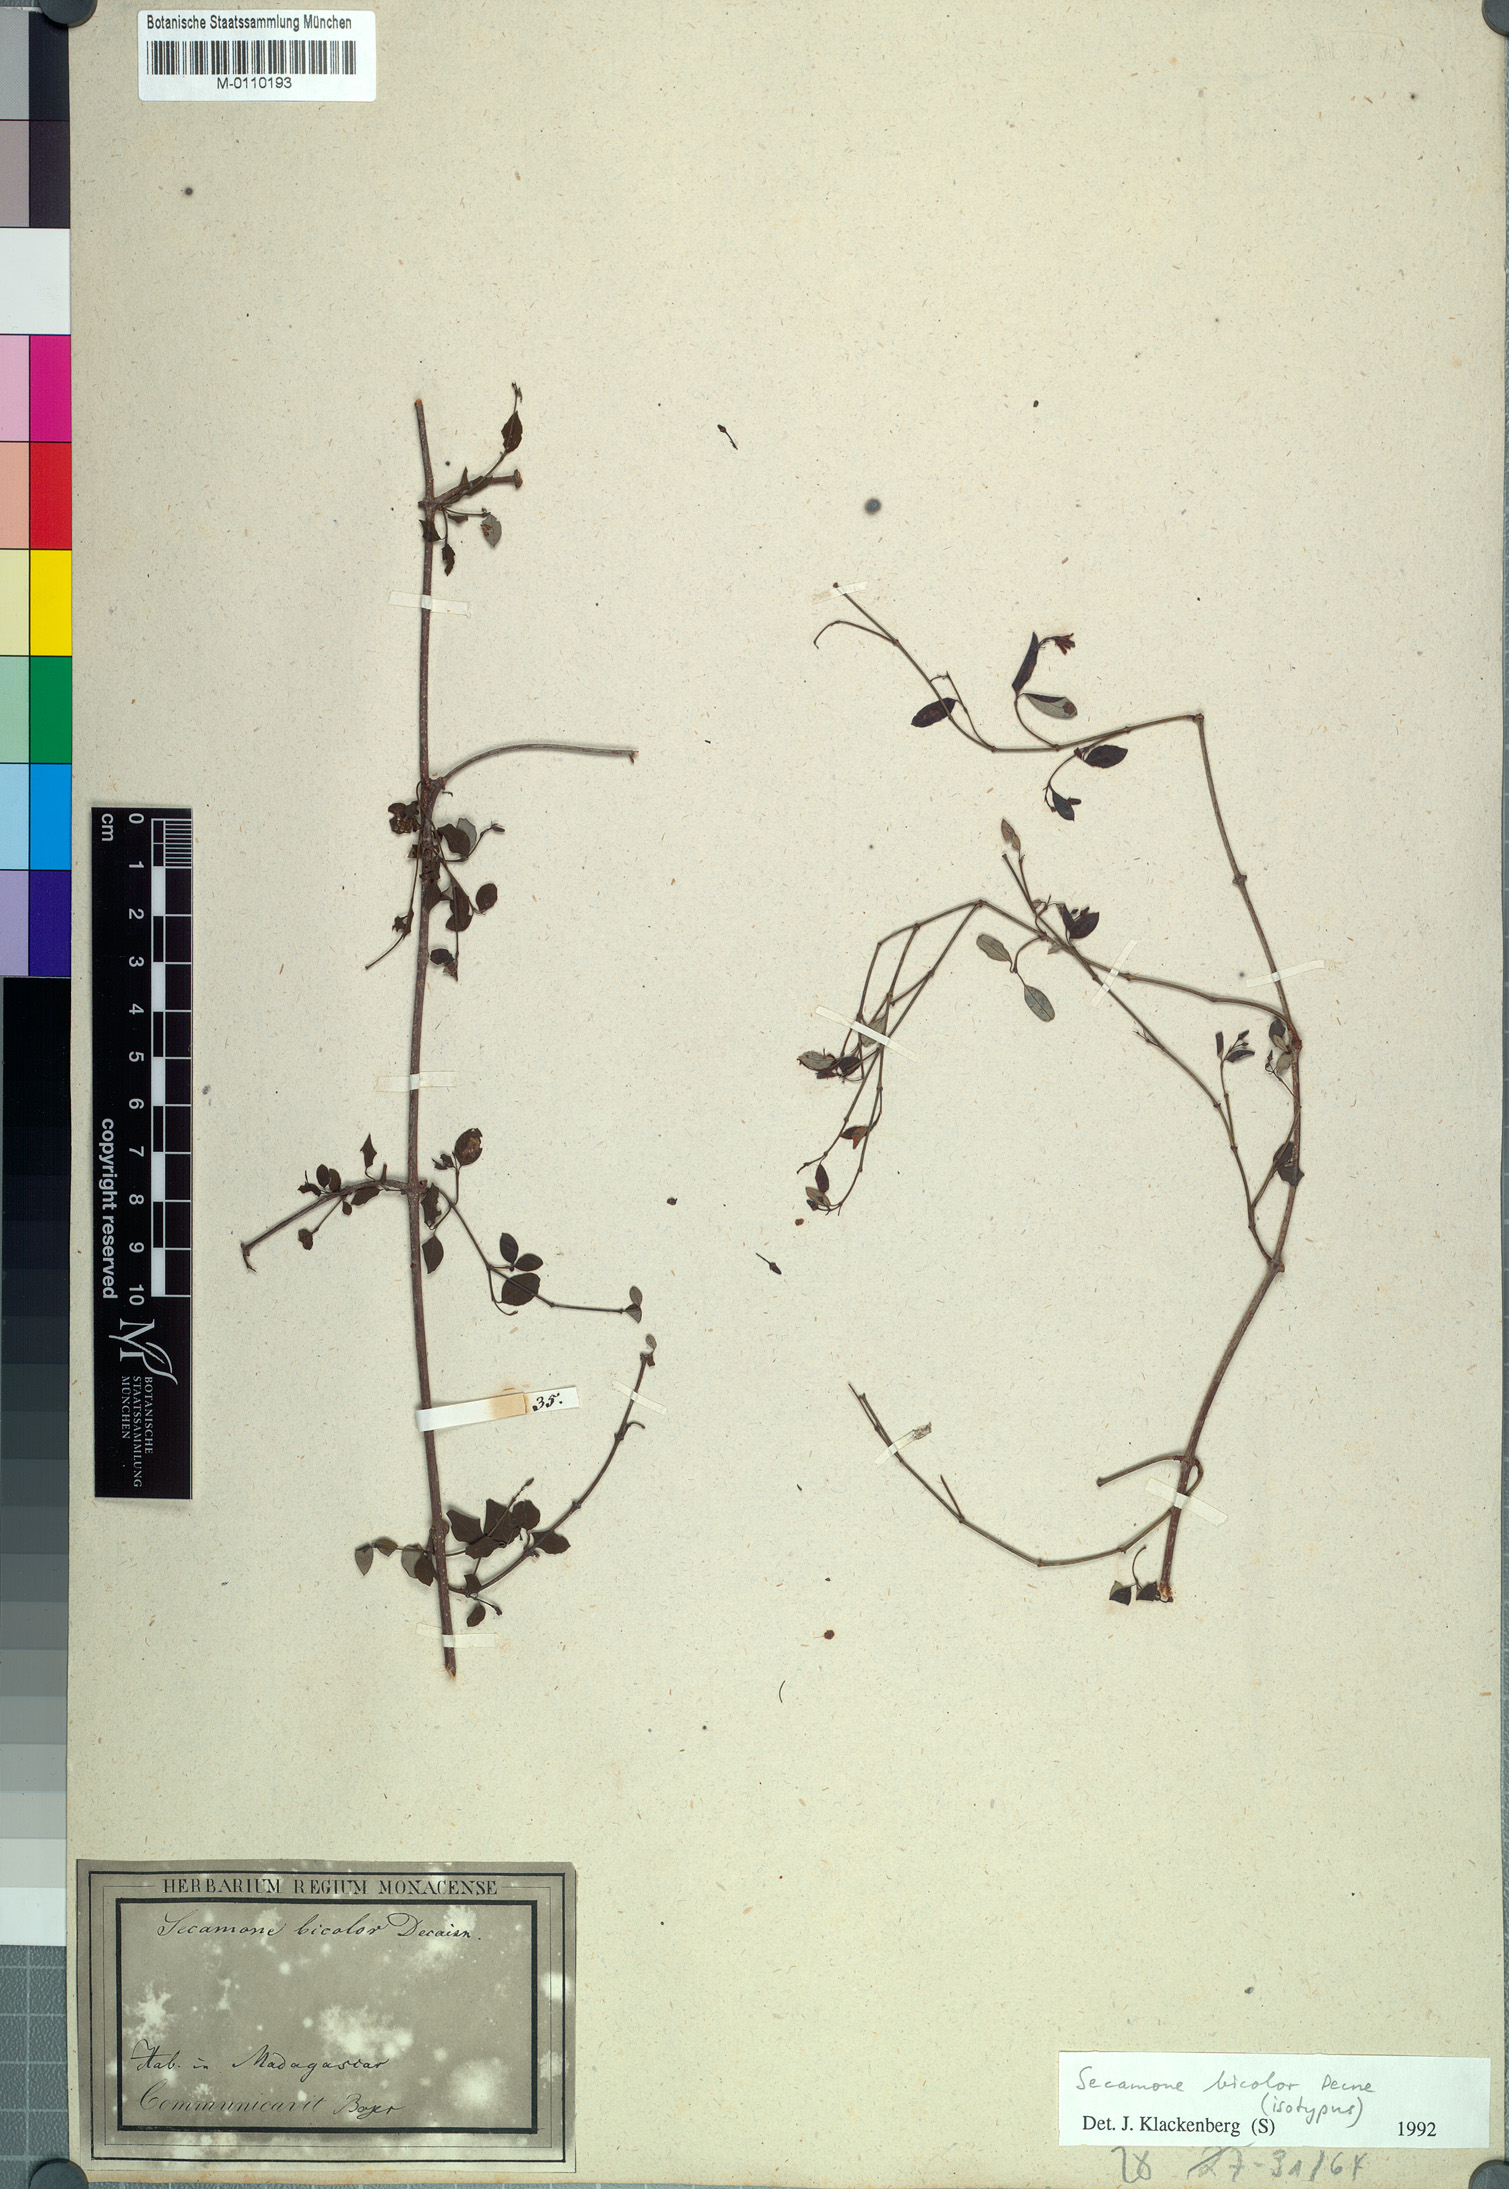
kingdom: Plantae
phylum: Tracheophyta
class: Magnoliopsida
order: Gentianales
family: Apocynaceae
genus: Secamone
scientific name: Secamone bicolor
